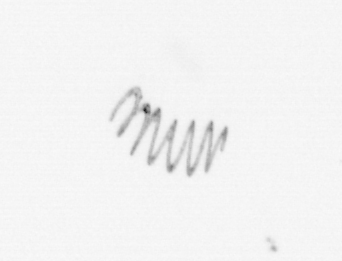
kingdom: Chromista
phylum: Ochrophyta
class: Bacillariophyceae
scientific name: Bacillariophyceae
